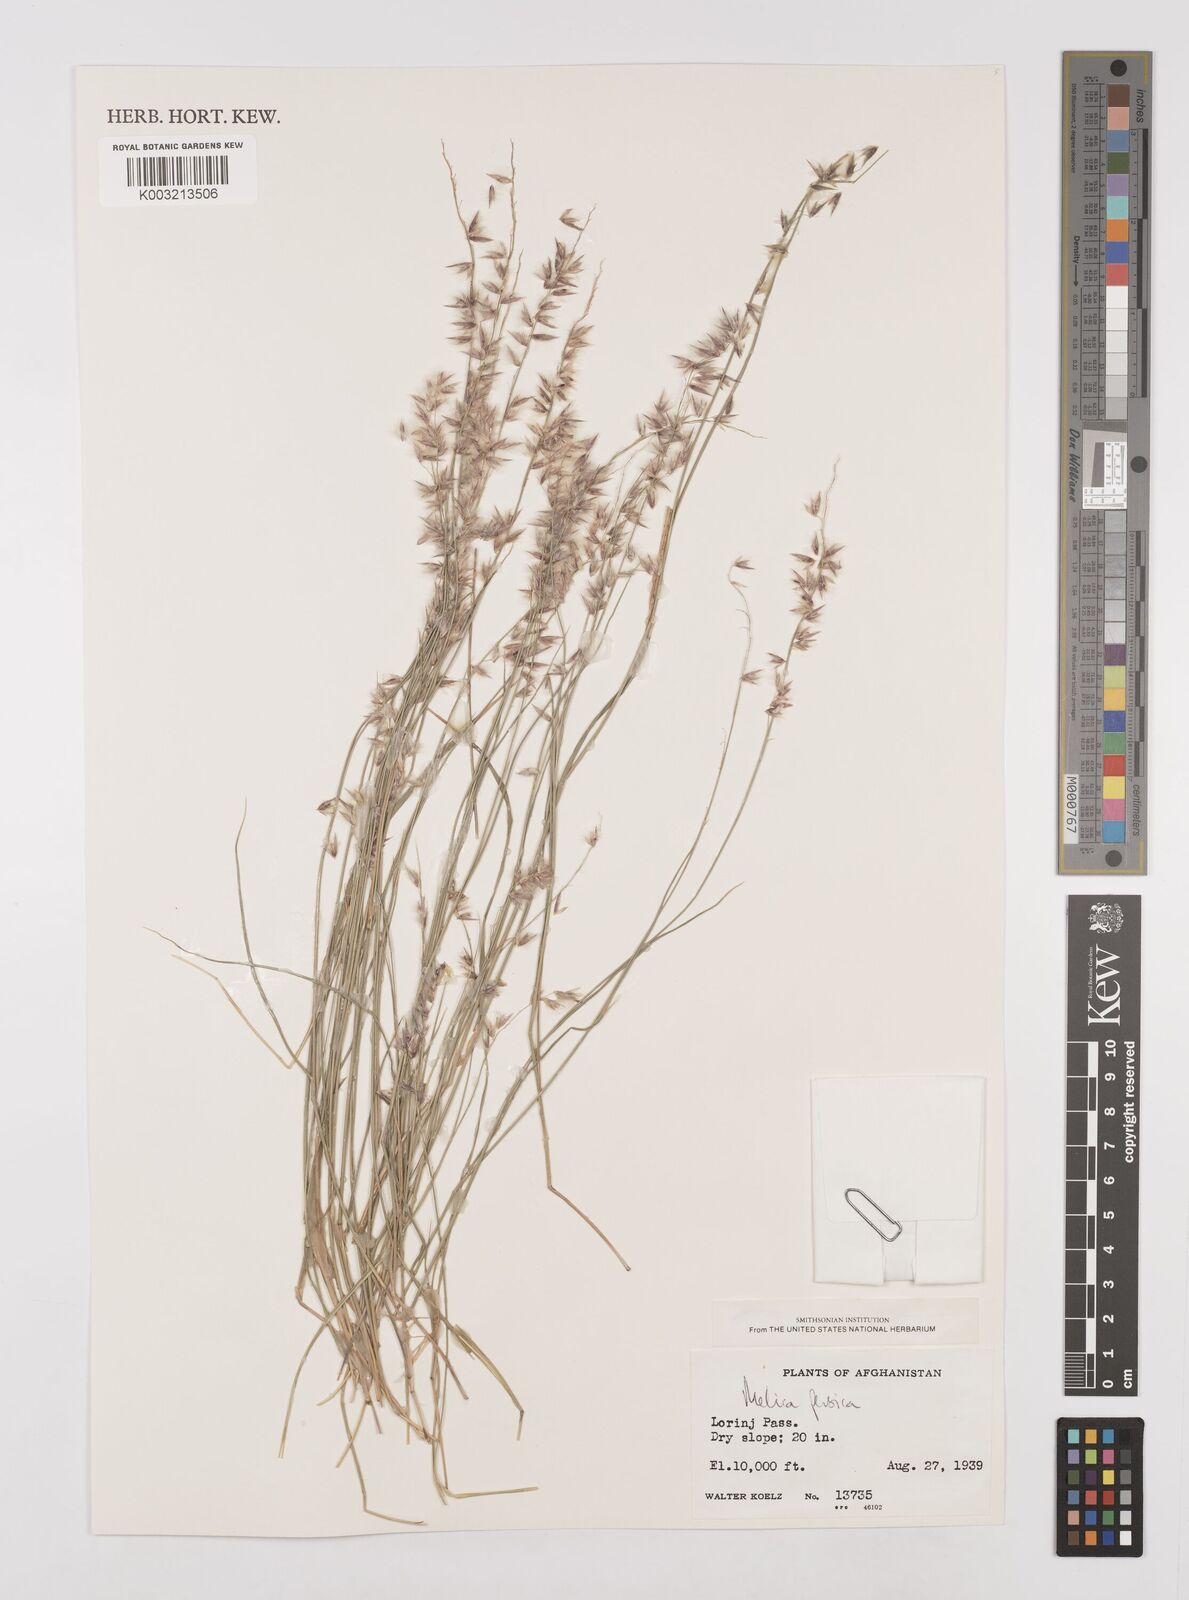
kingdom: Plantae
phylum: Tracheophyta
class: Liliopsida
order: Poales
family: Poaceae
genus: Melica
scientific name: Melica persica
